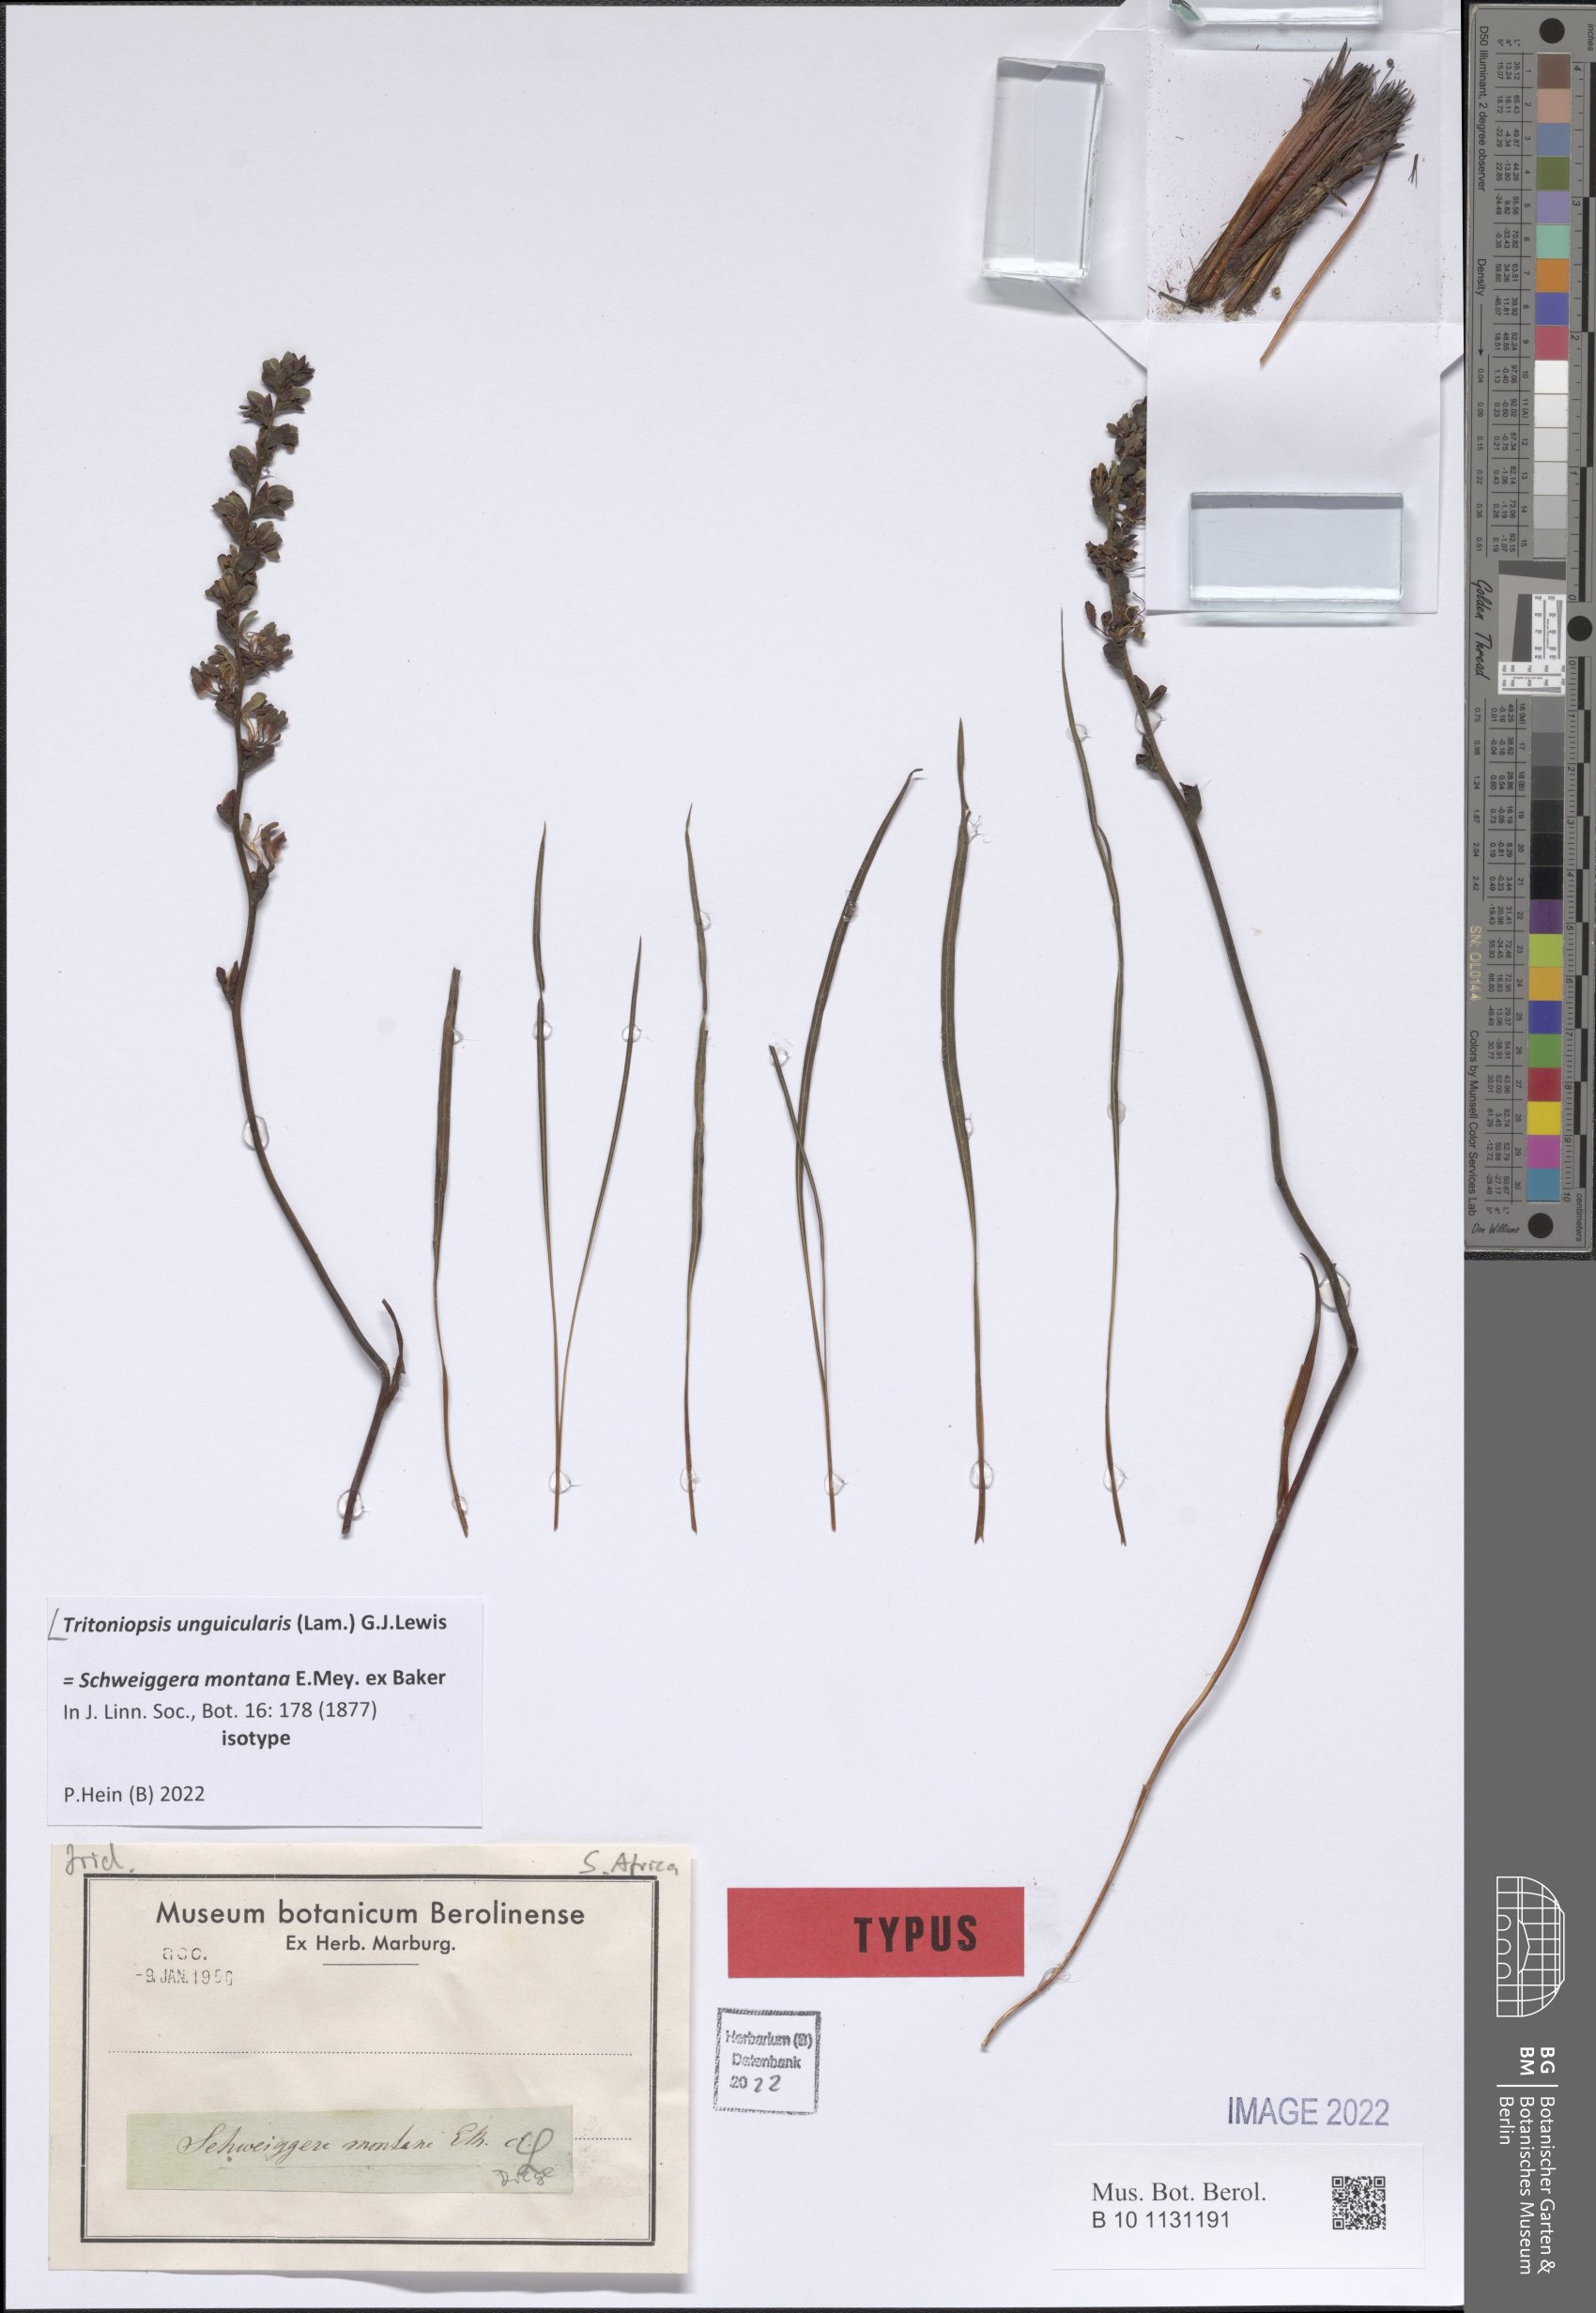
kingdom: Plantae
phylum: Tracheophyta
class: Liliopsida
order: Asparagales
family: Iridaceae
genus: Tritoniopsis
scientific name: Tritoniopsis unguicularis
